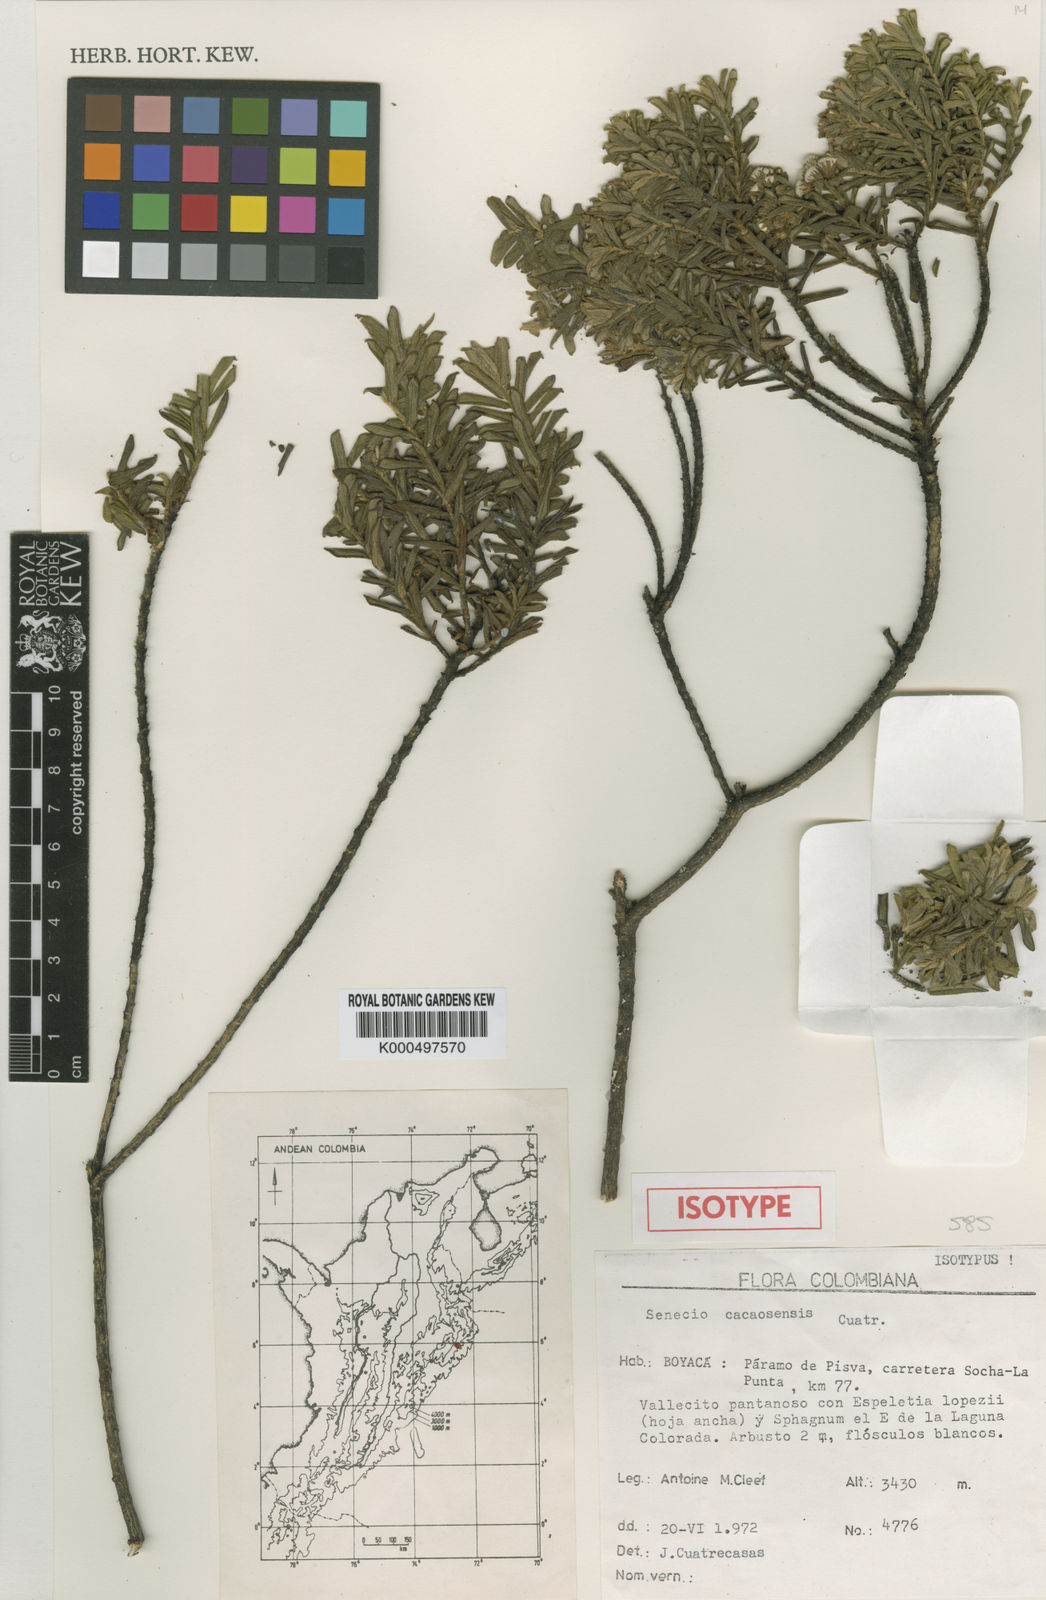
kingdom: Plantae
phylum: Tracheophyta
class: Magnoliopsida
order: Asterales
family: Asteraceae
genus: Monticalia
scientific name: Monticalia cacaosensis
